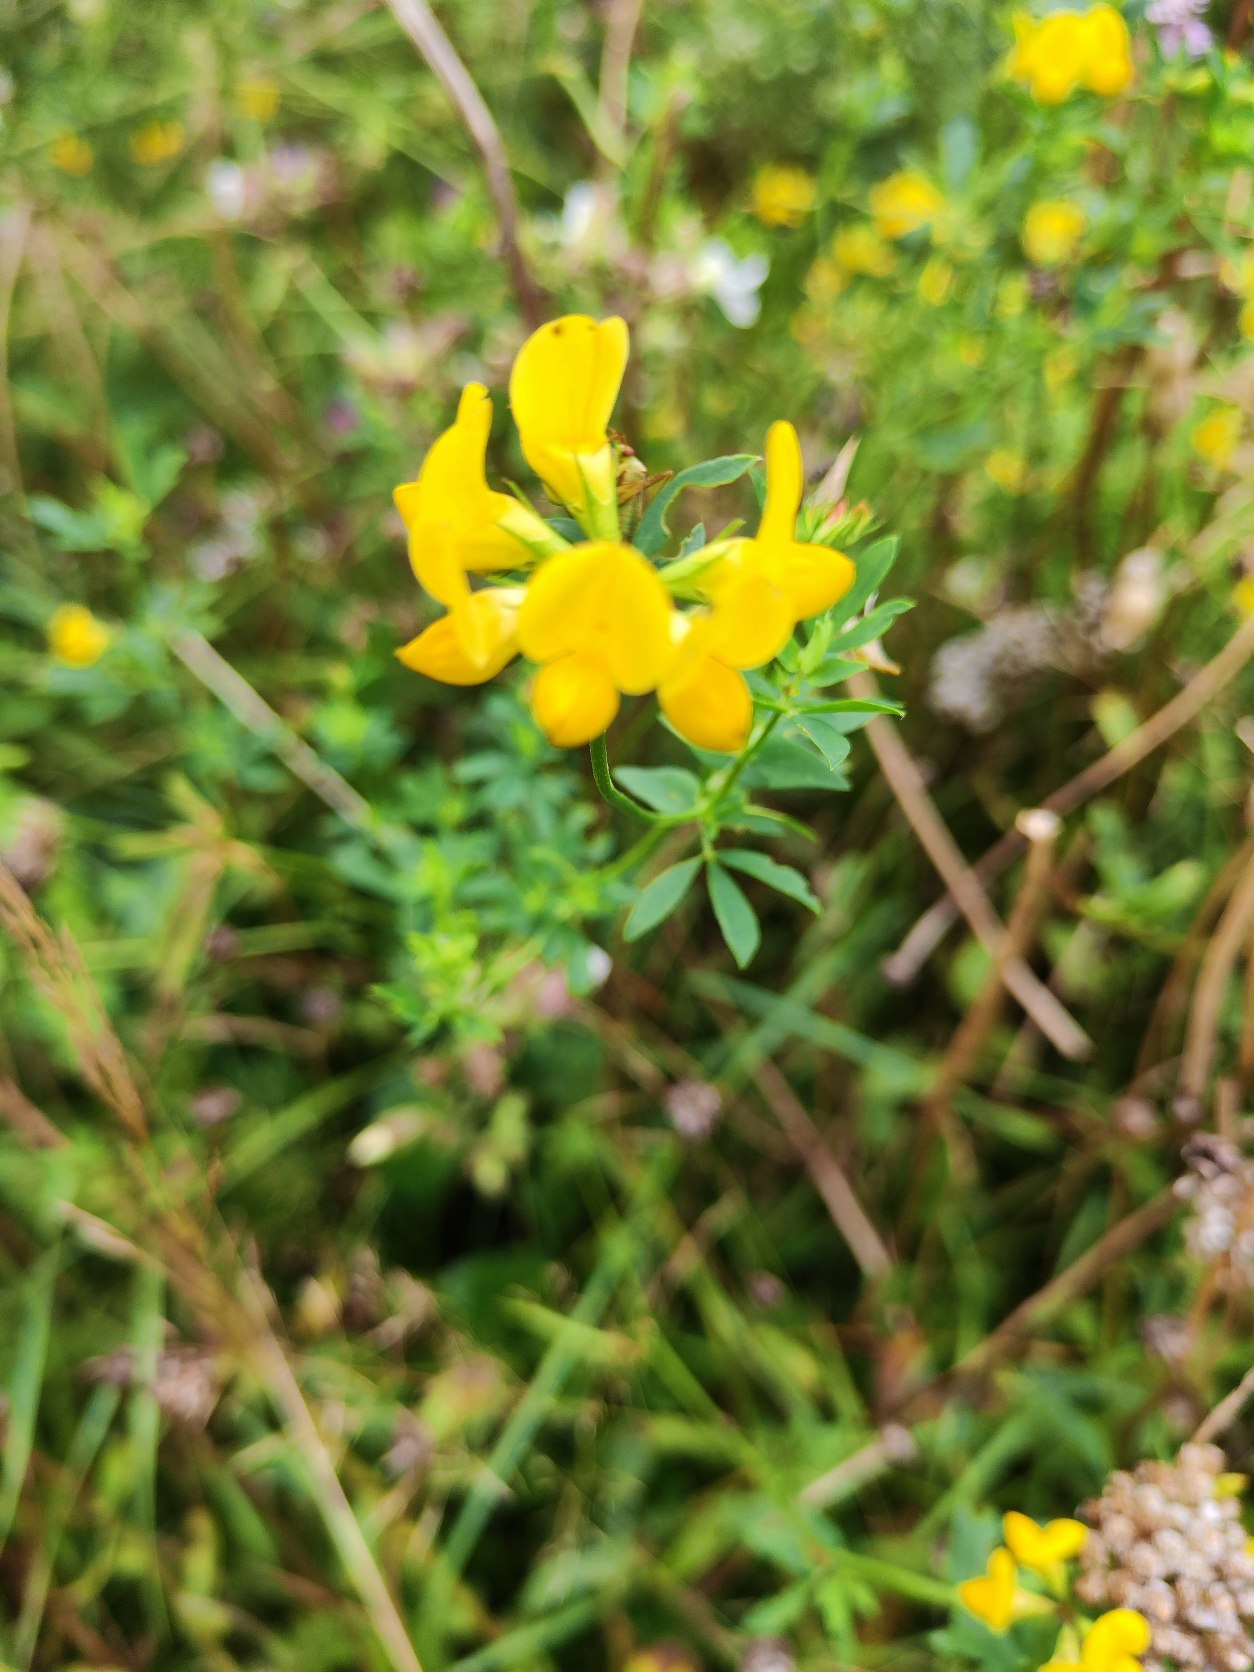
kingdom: Plantae
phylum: Tracheophyta
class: Magnoliopsida
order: Fabales
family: Fabaceae
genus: Lotus
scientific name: Lotus corniculatus
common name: Almindelig kællingetand
